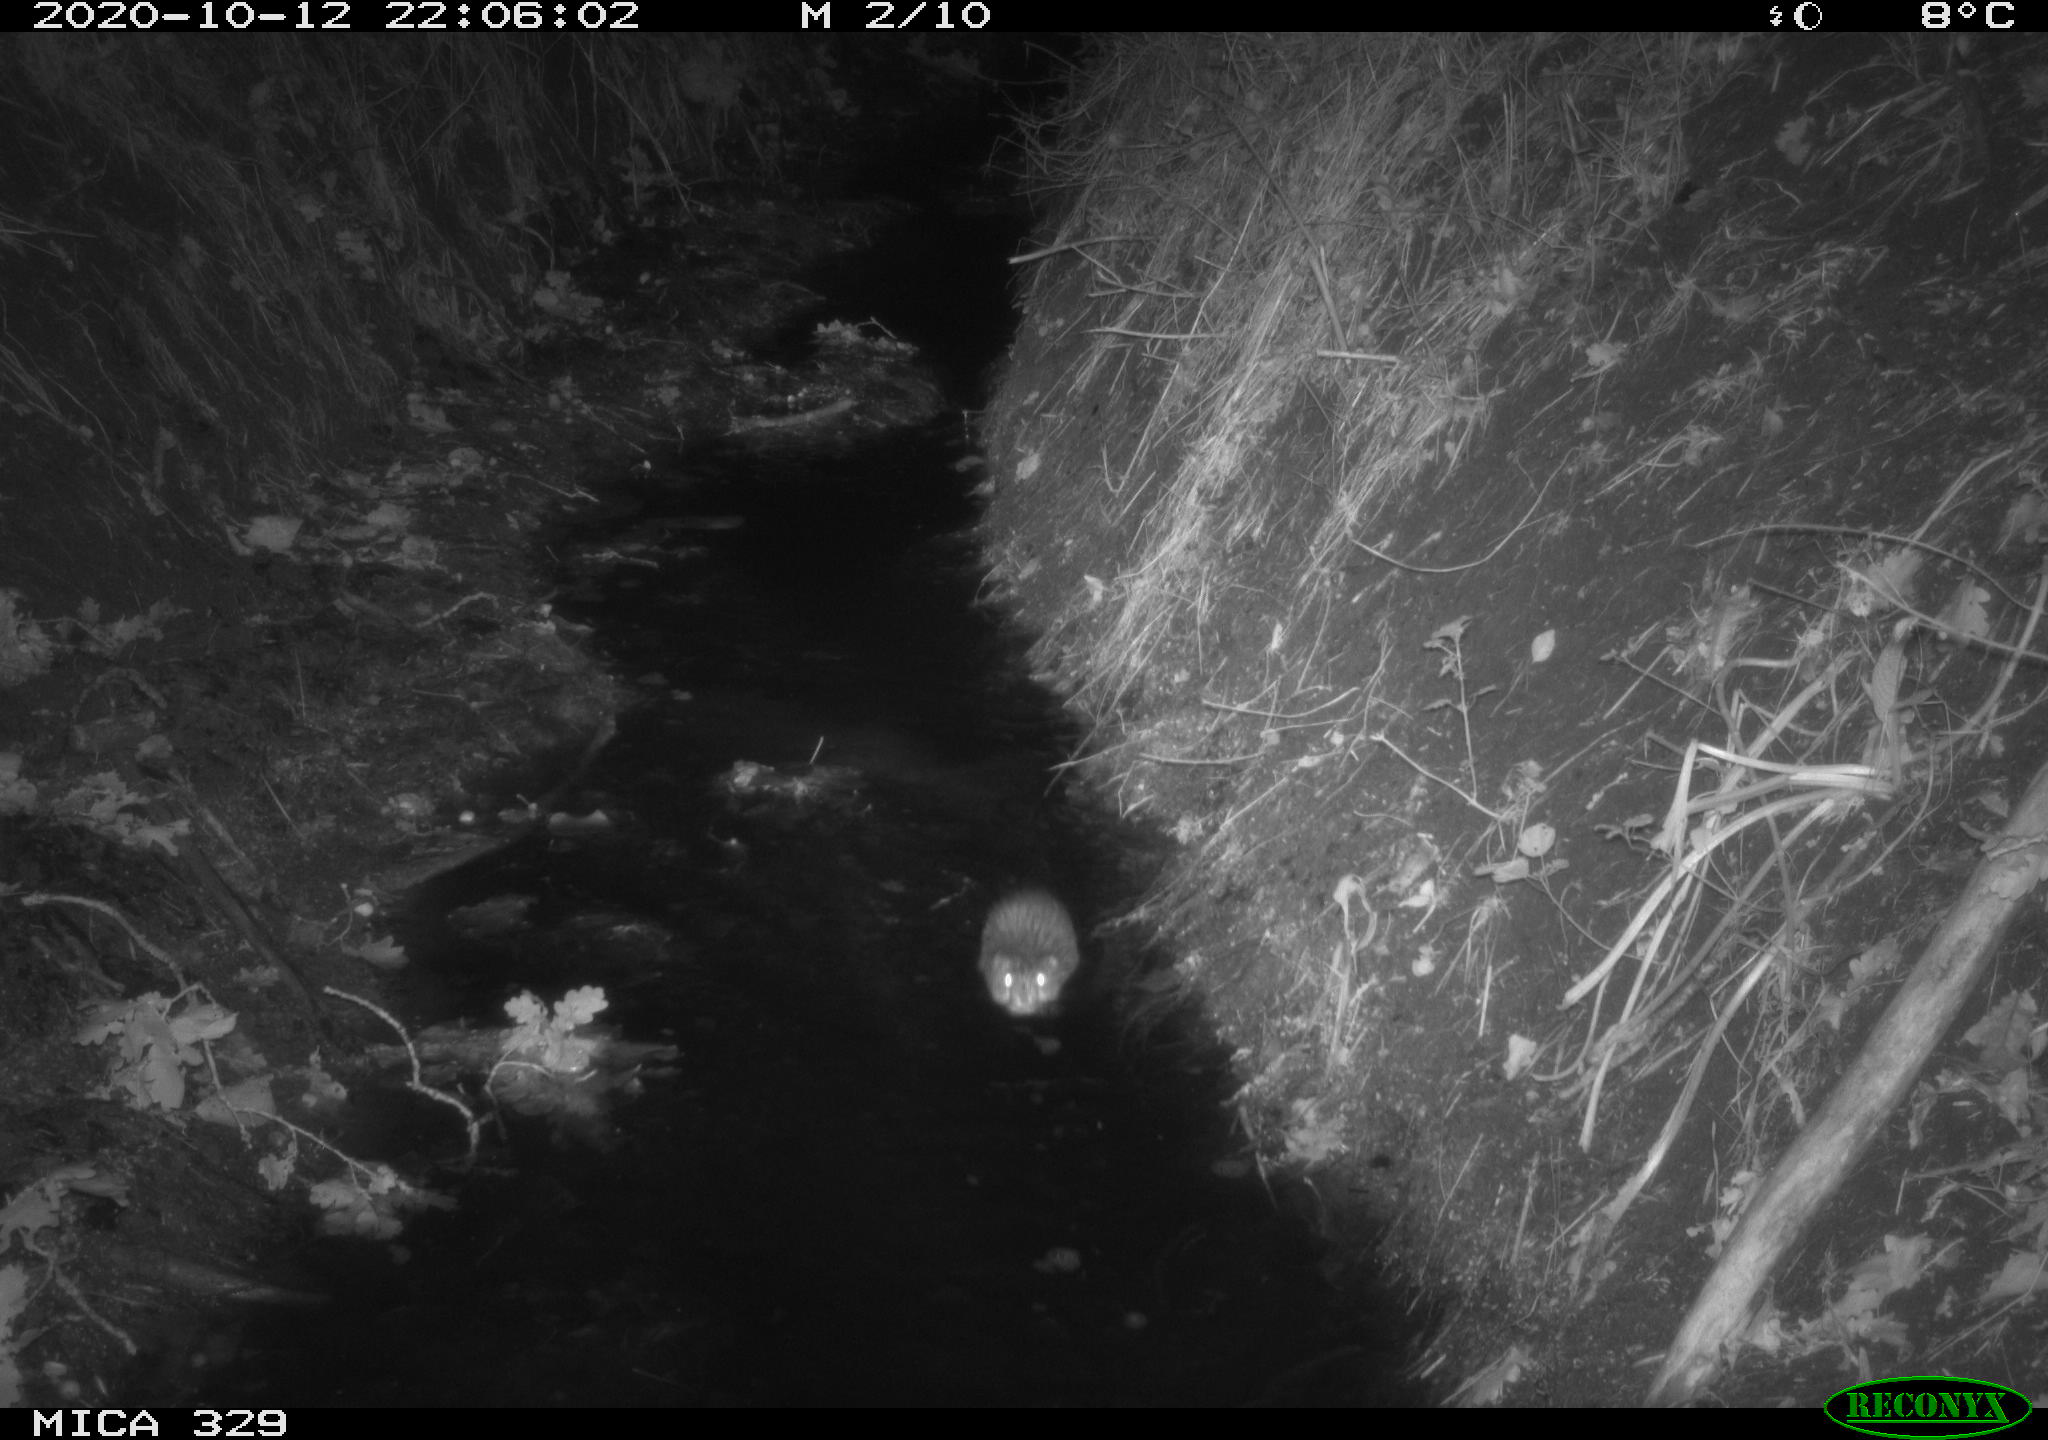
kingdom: Animalia
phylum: Chordata
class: Mammalia
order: Rodentia
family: Cricetidae
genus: Ondatra
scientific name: Ondatra zibethicus
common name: Muskrat
